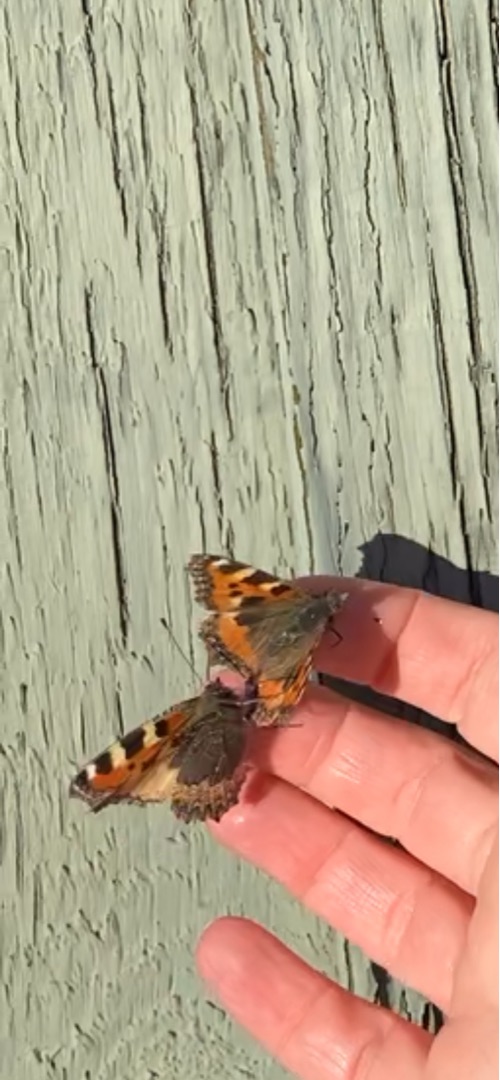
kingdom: Animalia
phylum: Arthropoda
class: Insecta
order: Lepidoptera
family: Nymphalidae
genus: Aglais
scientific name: Aglais urticae
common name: Nældens takvinge
